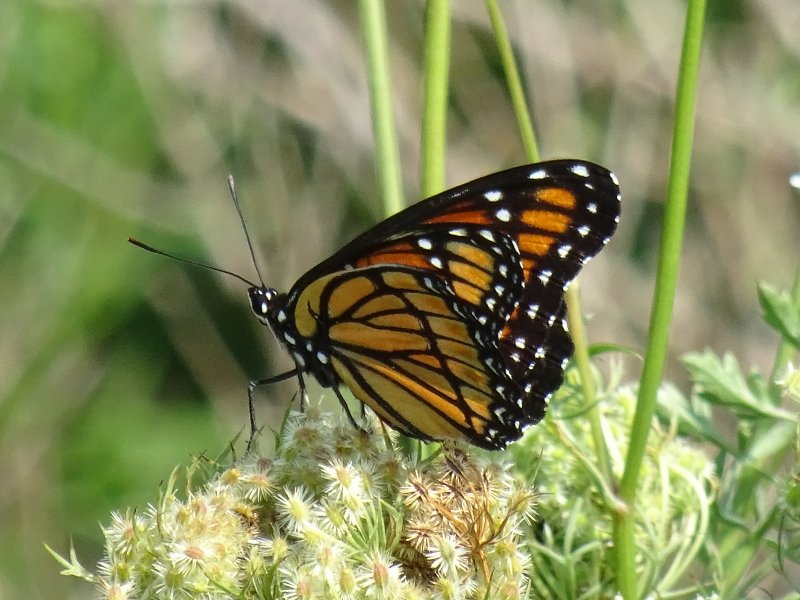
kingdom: Animalia
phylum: Arthropoda
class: Insecta
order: Lepidoptera
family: Nymphalidae
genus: Limenitis
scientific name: Limenitis archippus
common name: Viceroy
